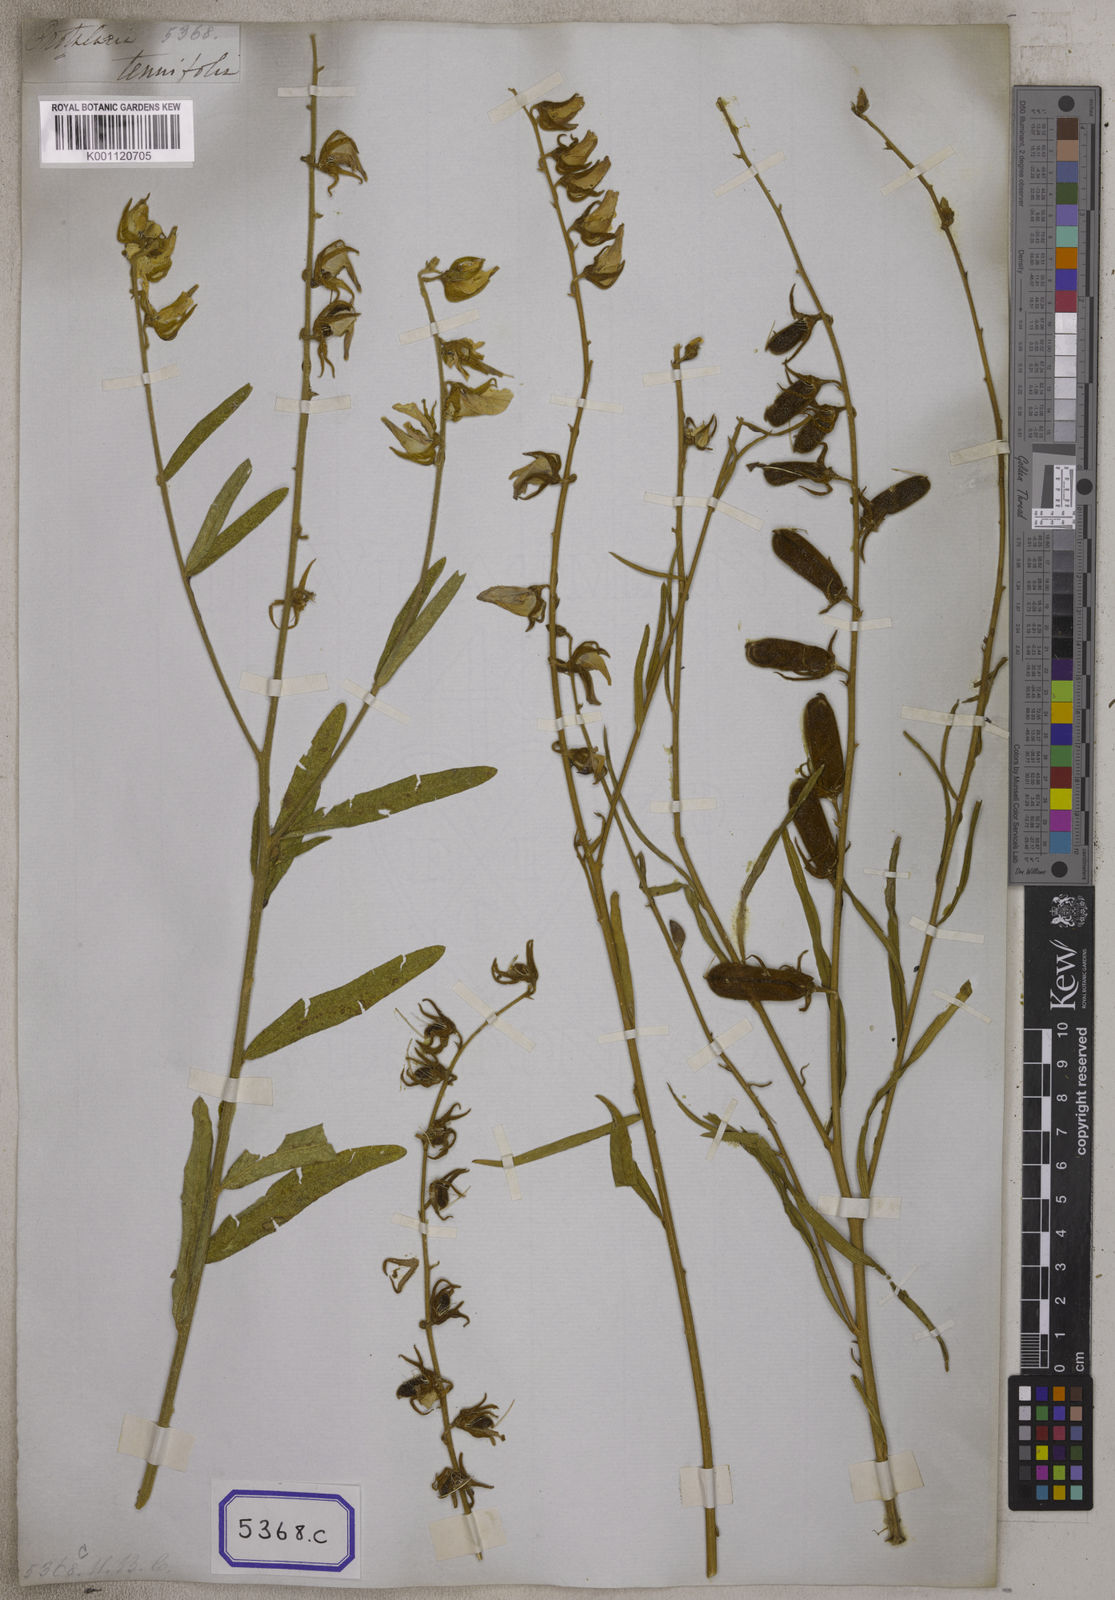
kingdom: Plantae
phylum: Tracheophyta
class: Magnoliopsida
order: Fabales
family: Fabaceae
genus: Crotalaria
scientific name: Crotalaria
